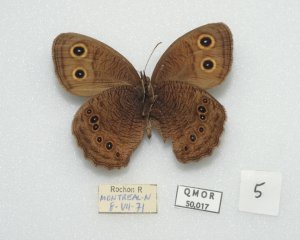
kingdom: Animalia
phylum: Arthropoda
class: Insecta
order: Lepidoptera
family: Nymphalidae
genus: Cercyonis
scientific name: Cercyonis pegala
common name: Common Wood-Nymph
